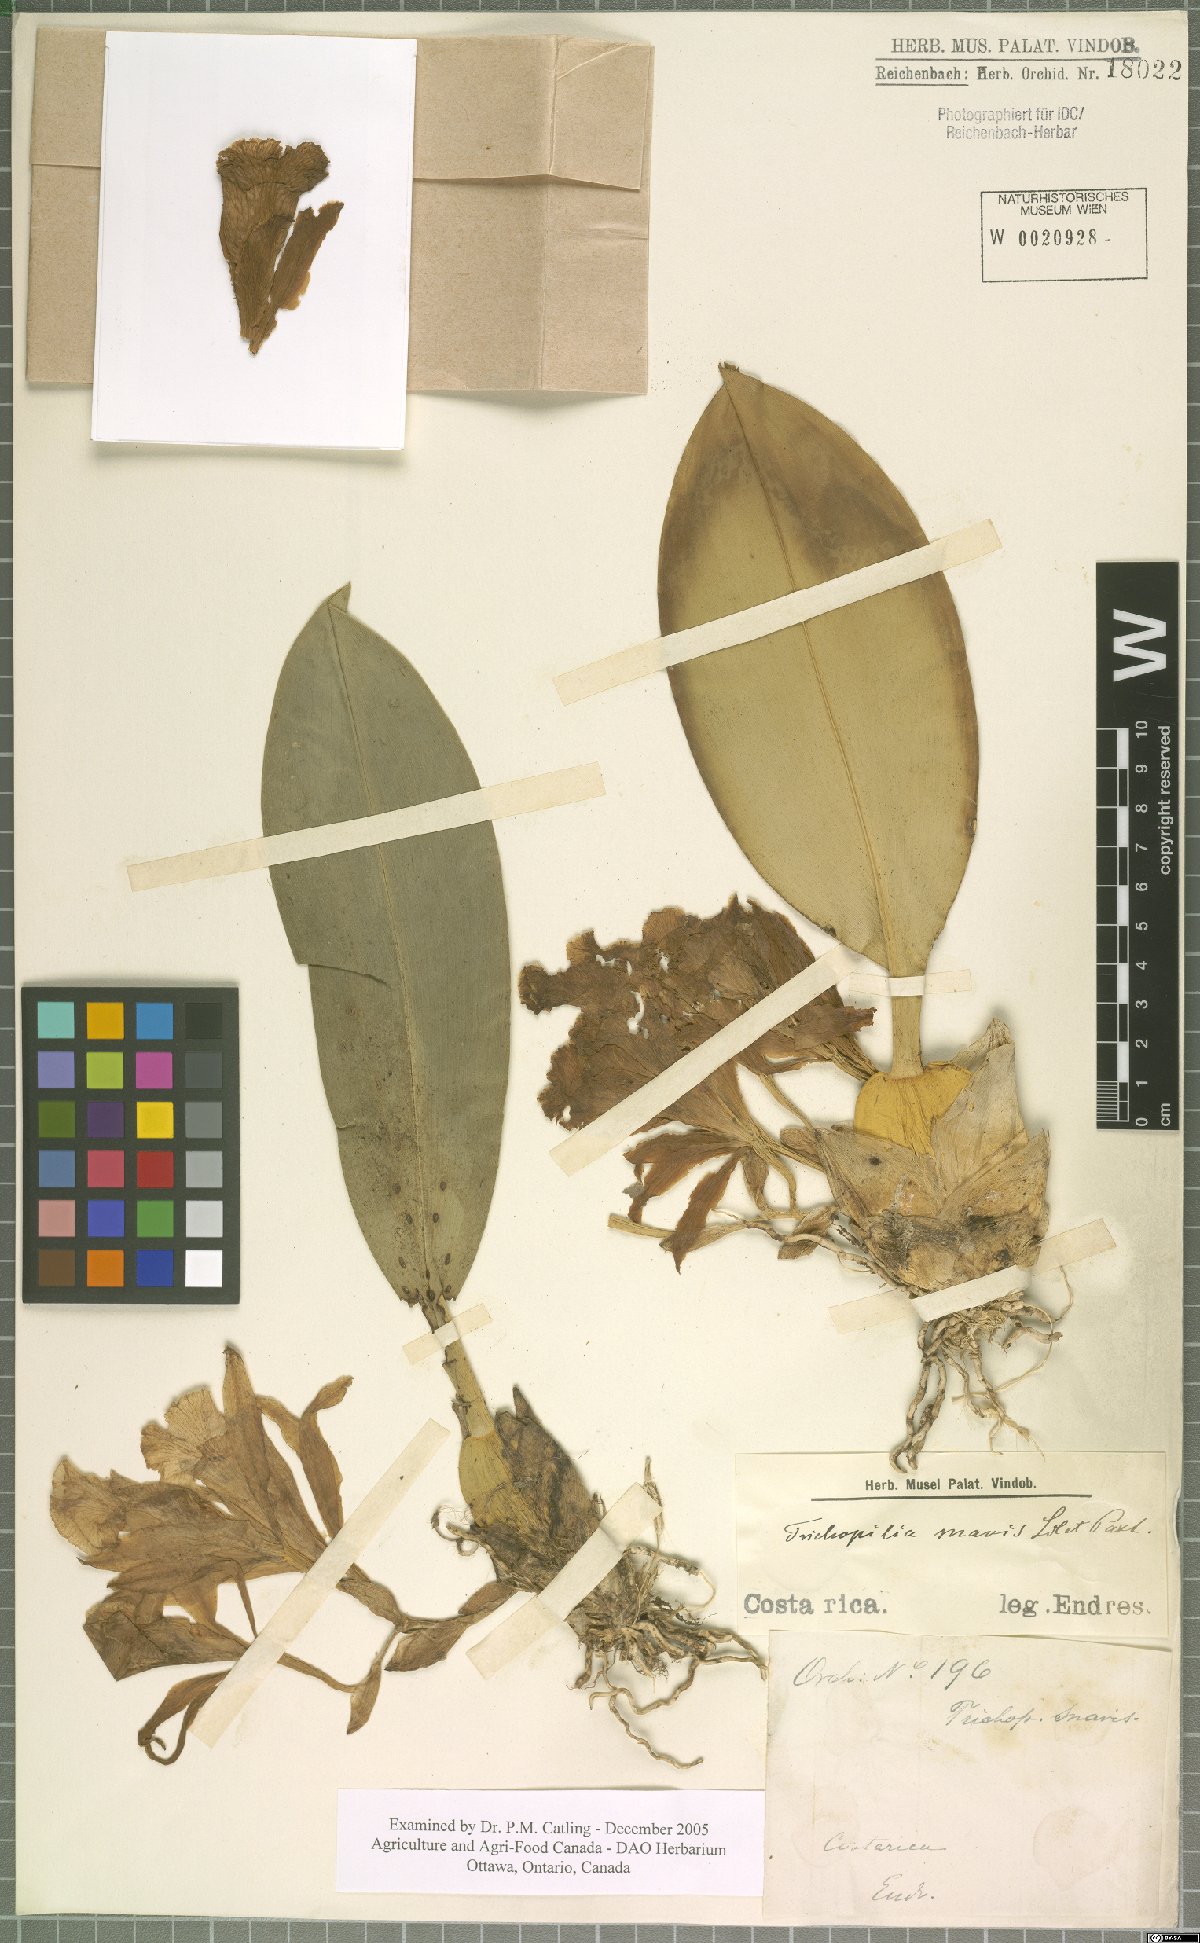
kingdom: Plantae
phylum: Tracheophyta
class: Liliopsida
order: Asparagales
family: Orchidaceae
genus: Trichopilia
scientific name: Trichopilia suavis
